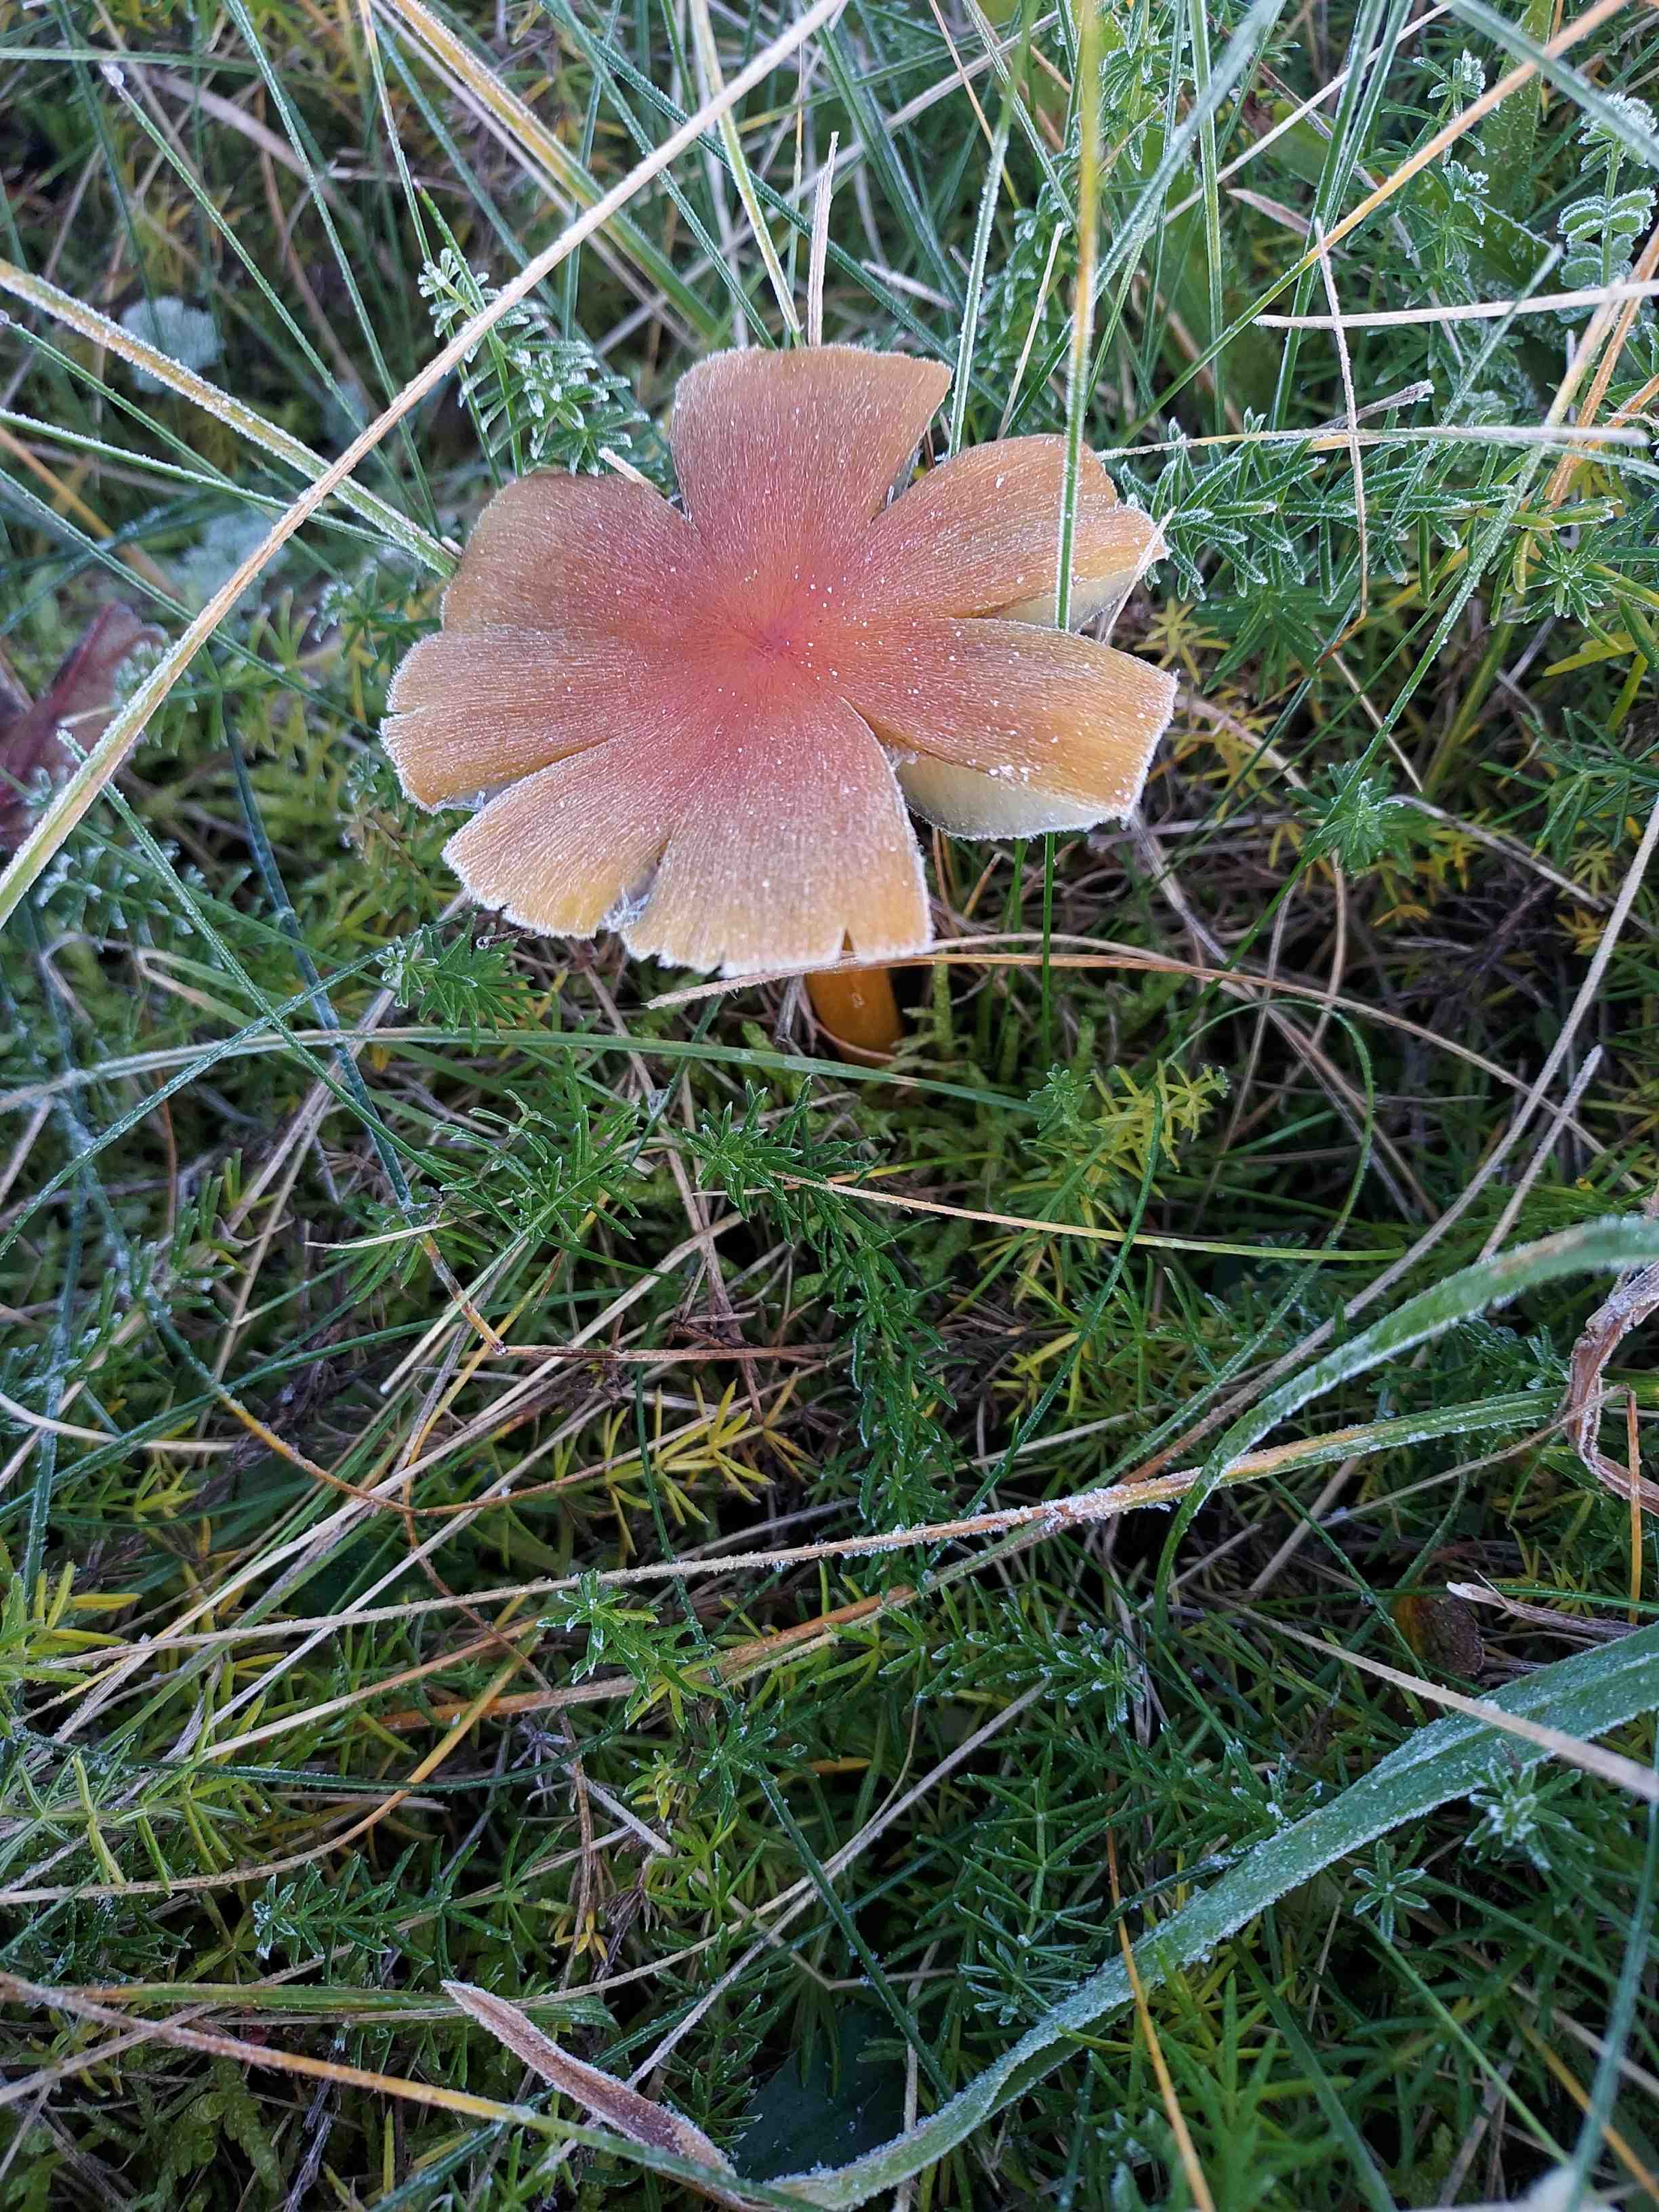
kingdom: Fungi
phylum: Basidiomycota
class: Agaricomycetes
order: Agaricales
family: Hygrophoraceae
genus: Hygrocybe
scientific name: Hygrocybe conica
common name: kegle-vokshat
